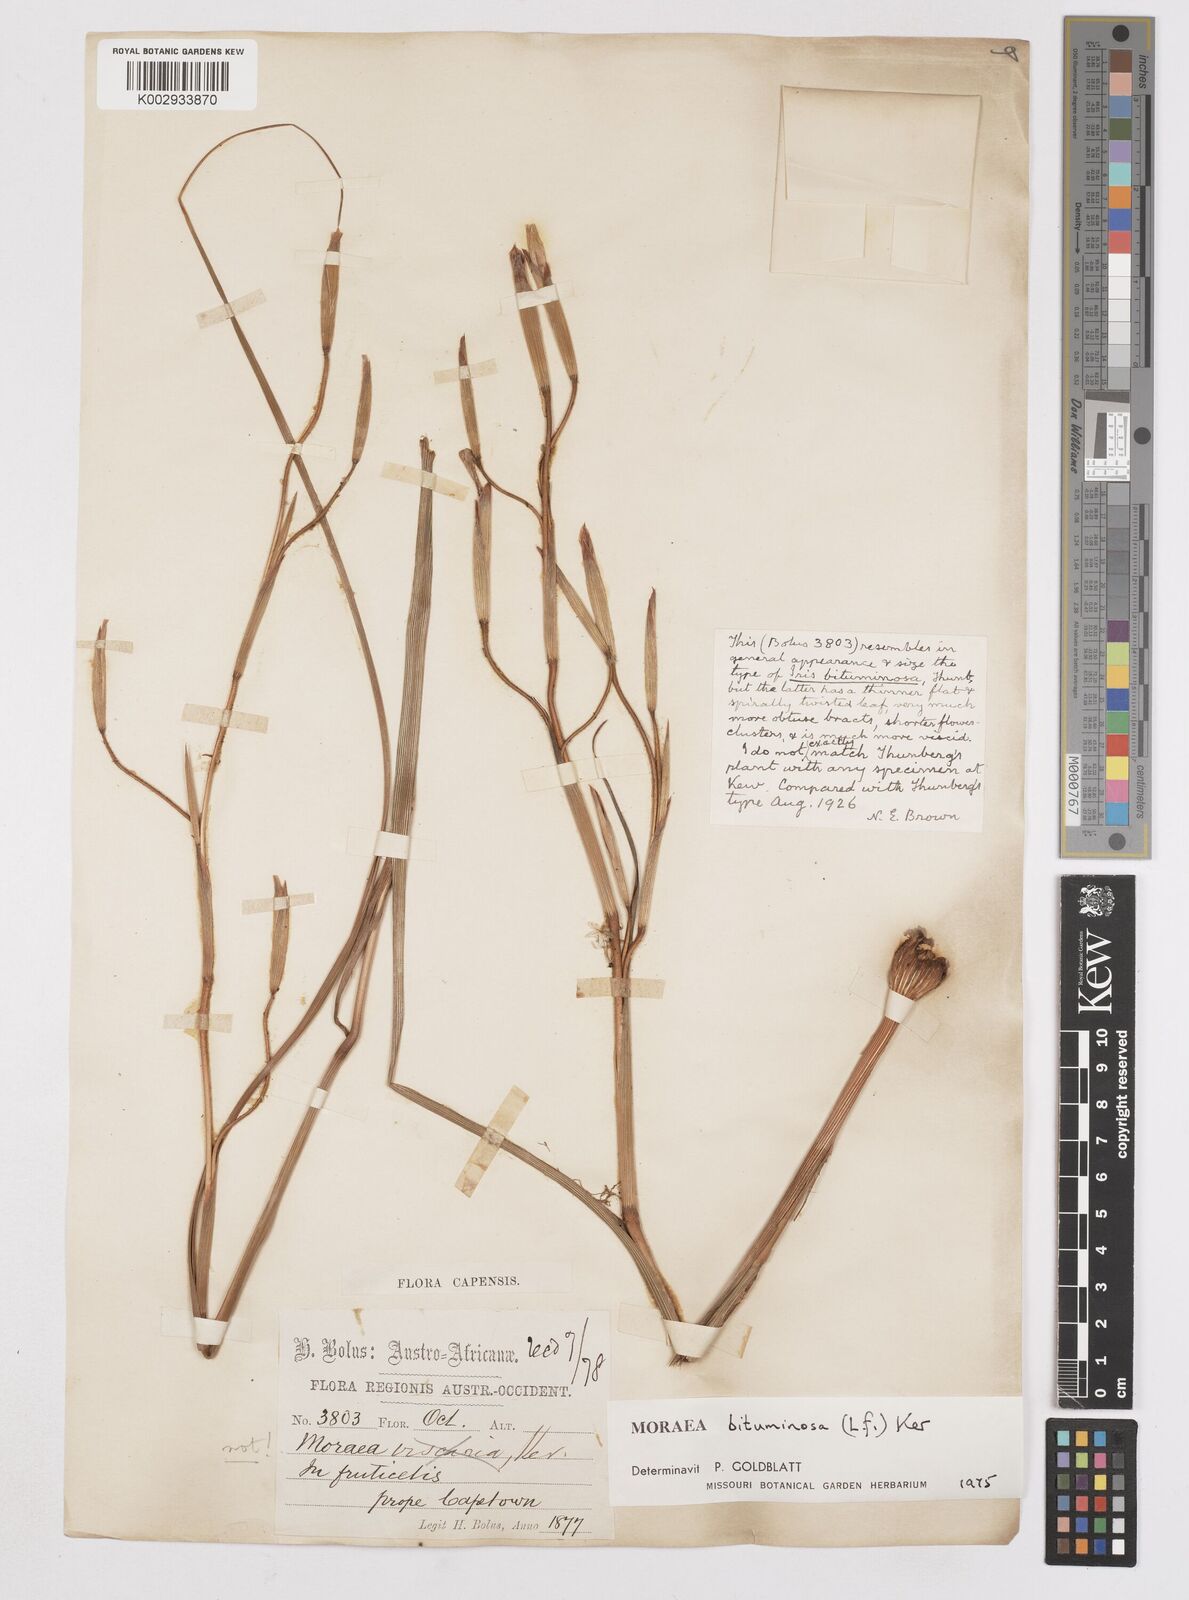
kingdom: Plantae
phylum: Tracheophyta
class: Liliopsida
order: Asparagales
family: Iridaceae
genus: Moraea
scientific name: Moraea bituminosa
